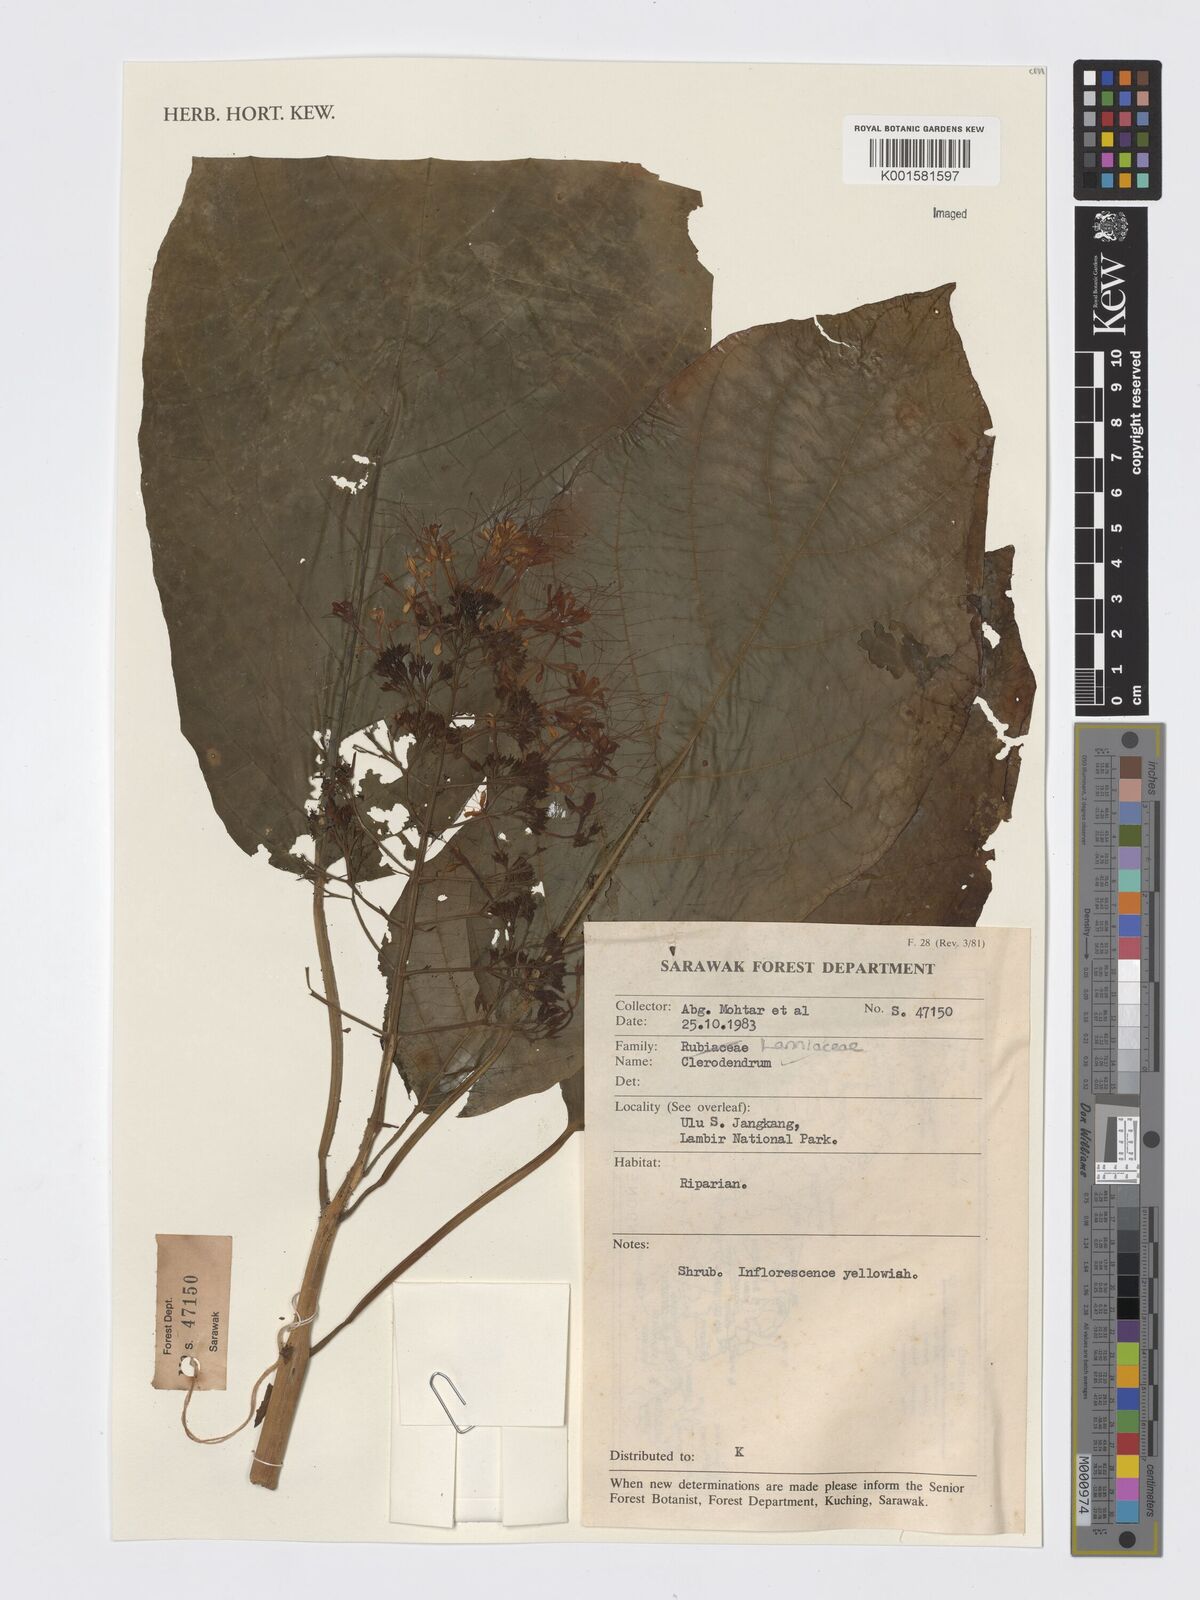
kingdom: Plantae
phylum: Tracheophyta
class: Magnoliopsida
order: Lamiales
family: Lamiaceae
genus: Clerodendrum
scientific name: Clerodendrum
